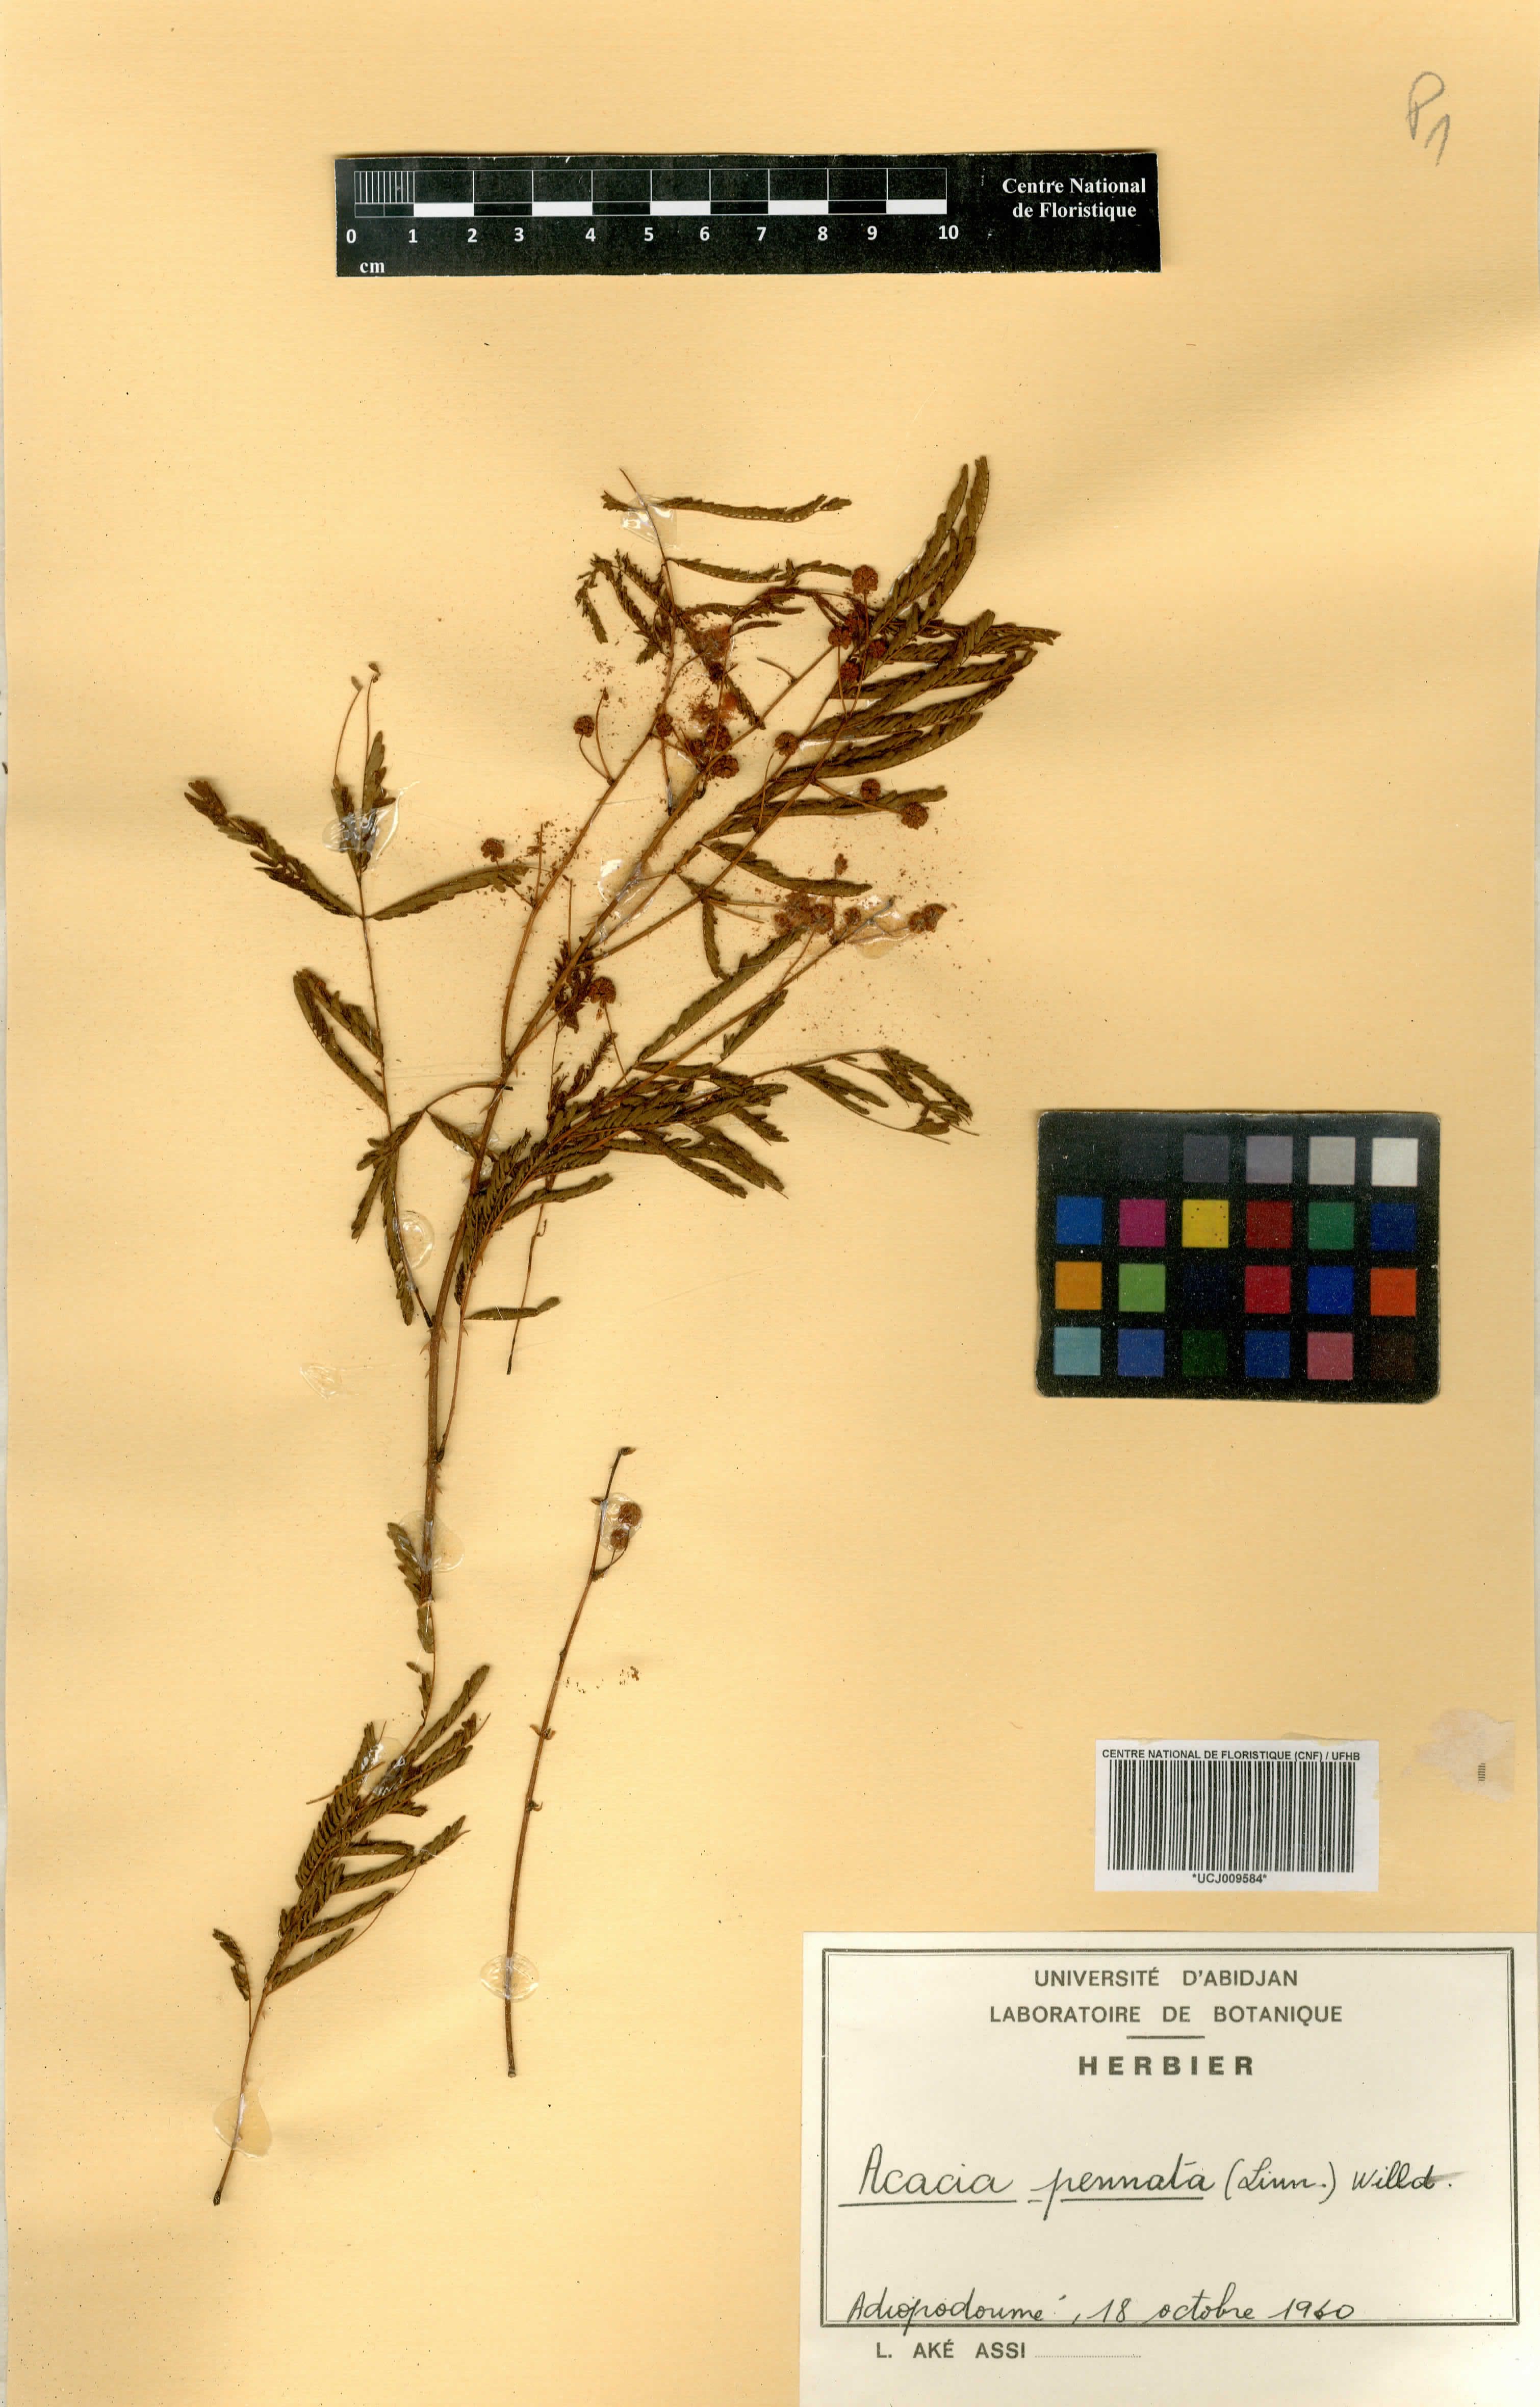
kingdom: Plantae
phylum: Tracheophyta
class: Magnoliopsida
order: Fabales
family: Fabaceae
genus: Senegalia
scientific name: Senegalia pennata
